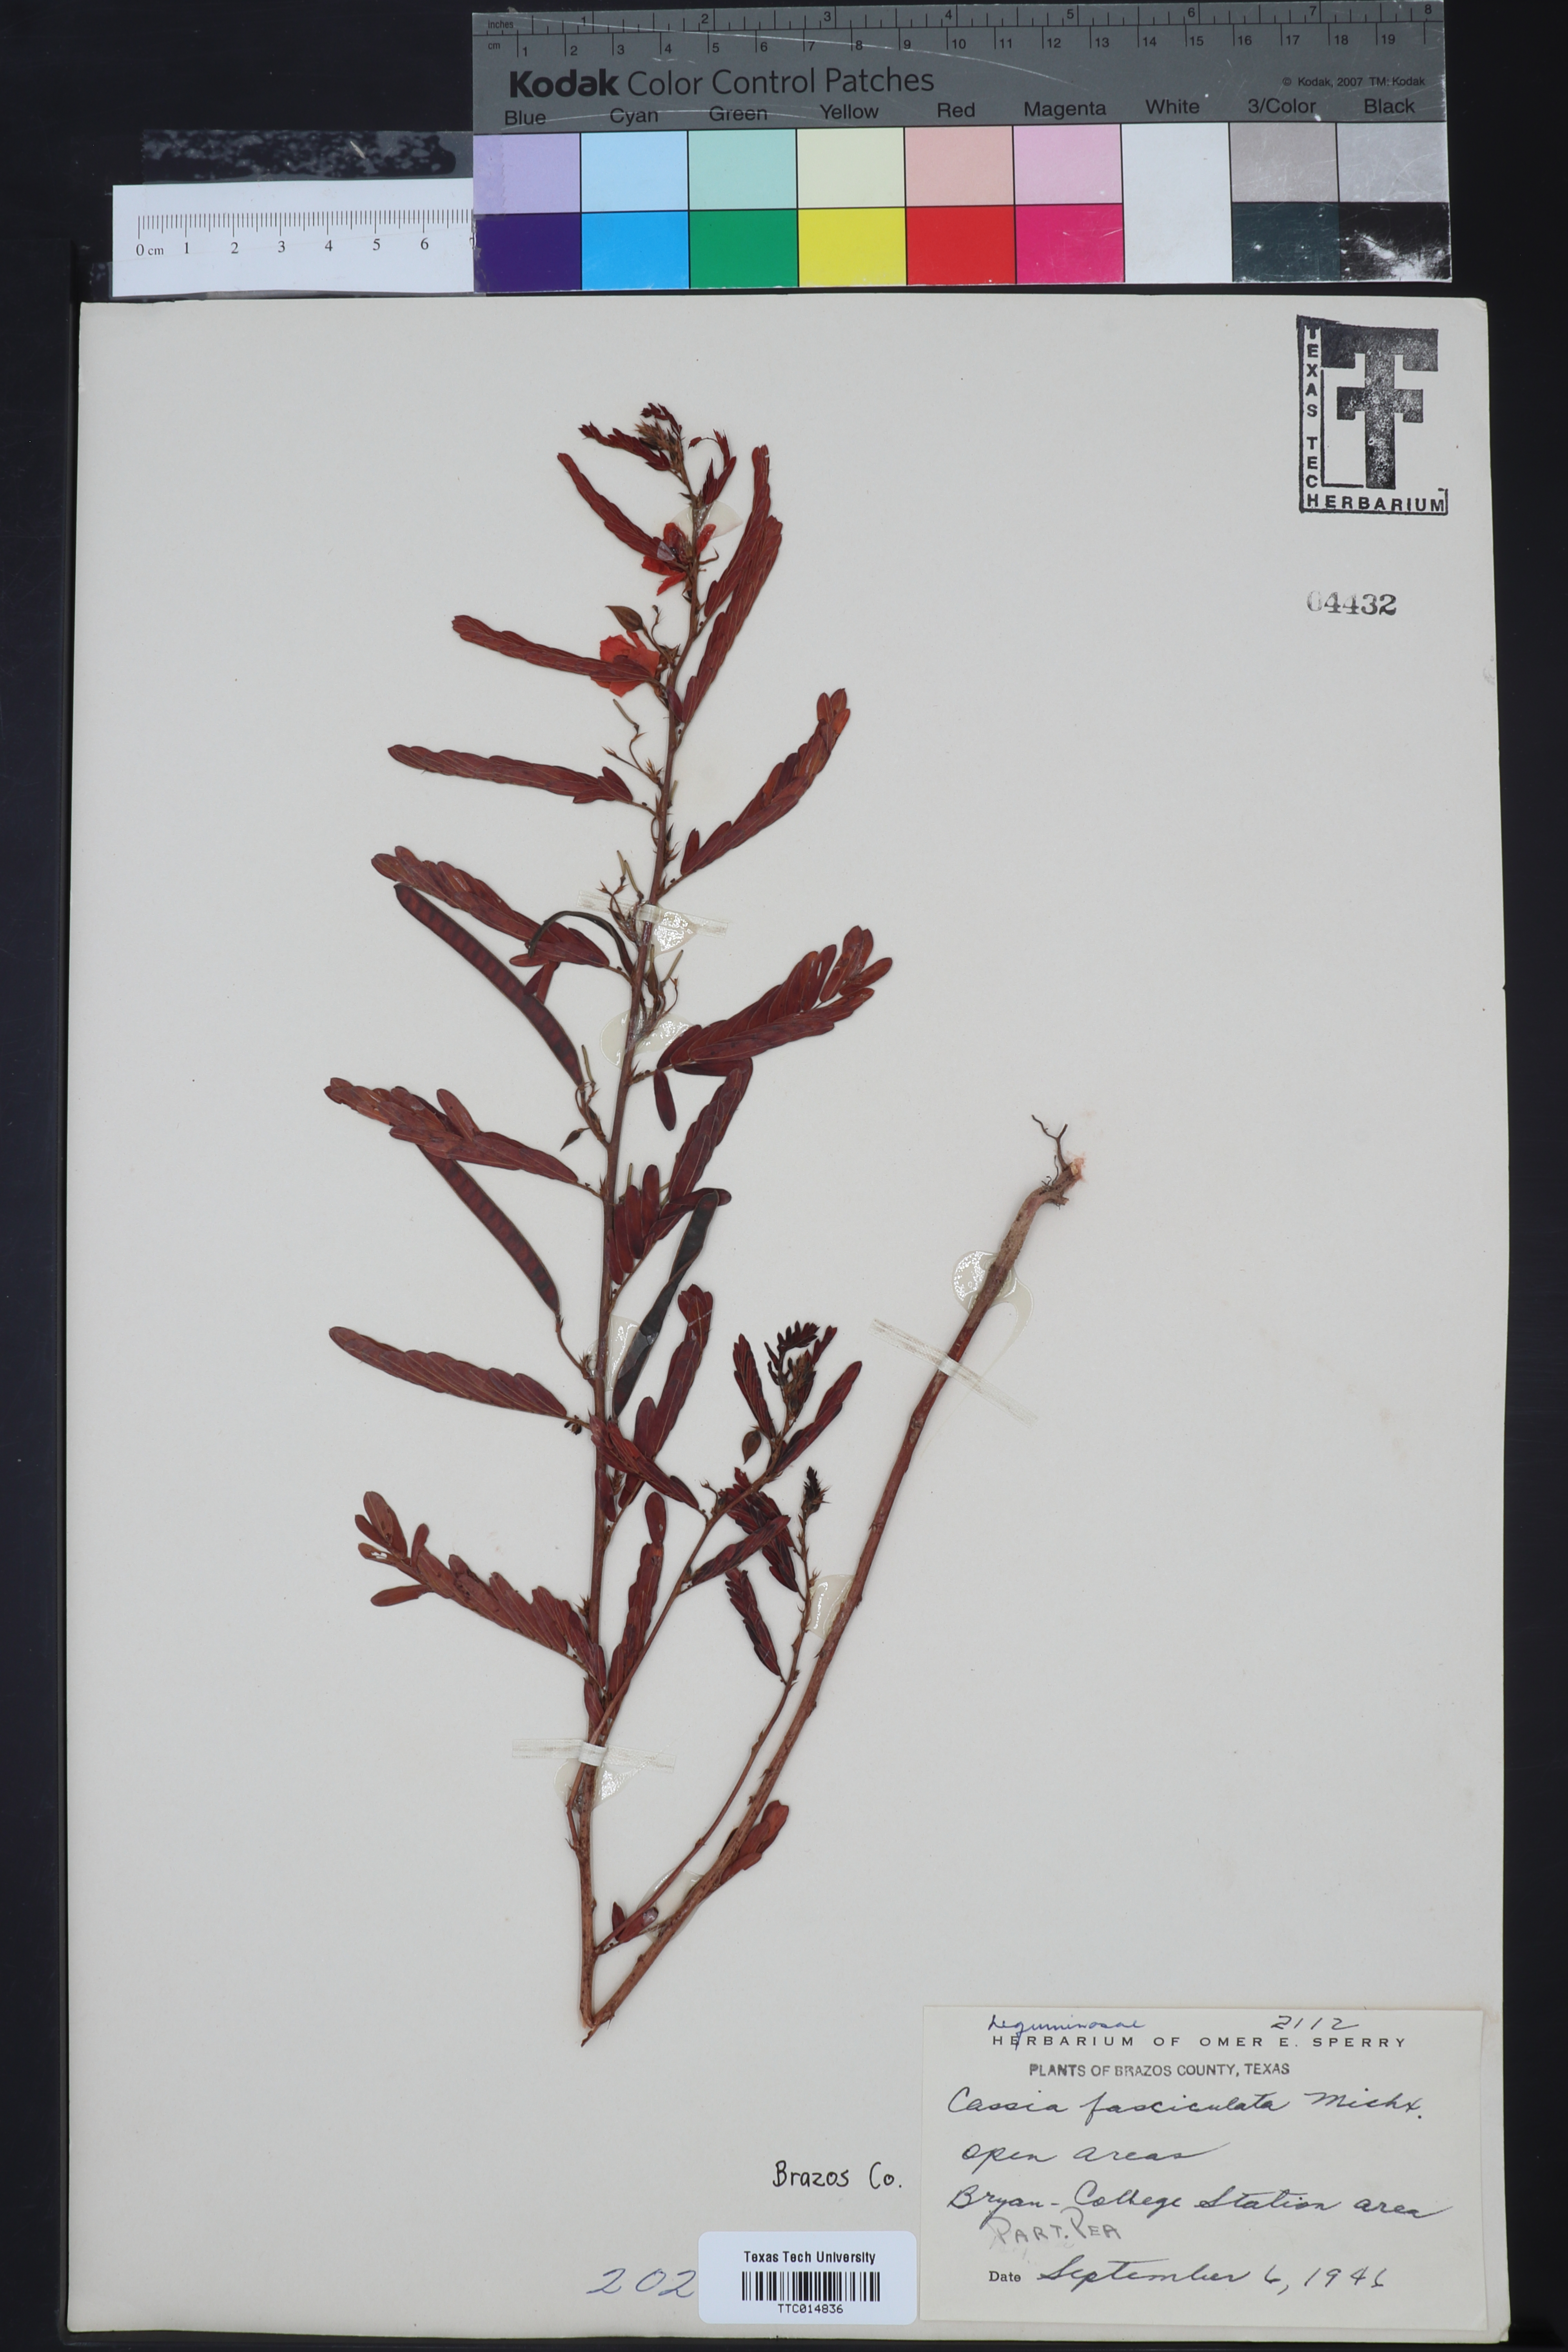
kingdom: Plantae
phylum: Tracheophyta
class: Magnoliopsida
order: Fabales
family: Fabaceae
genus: Chamaecrista
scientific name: Chamaecrista fasciculata
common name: Golden cassia
